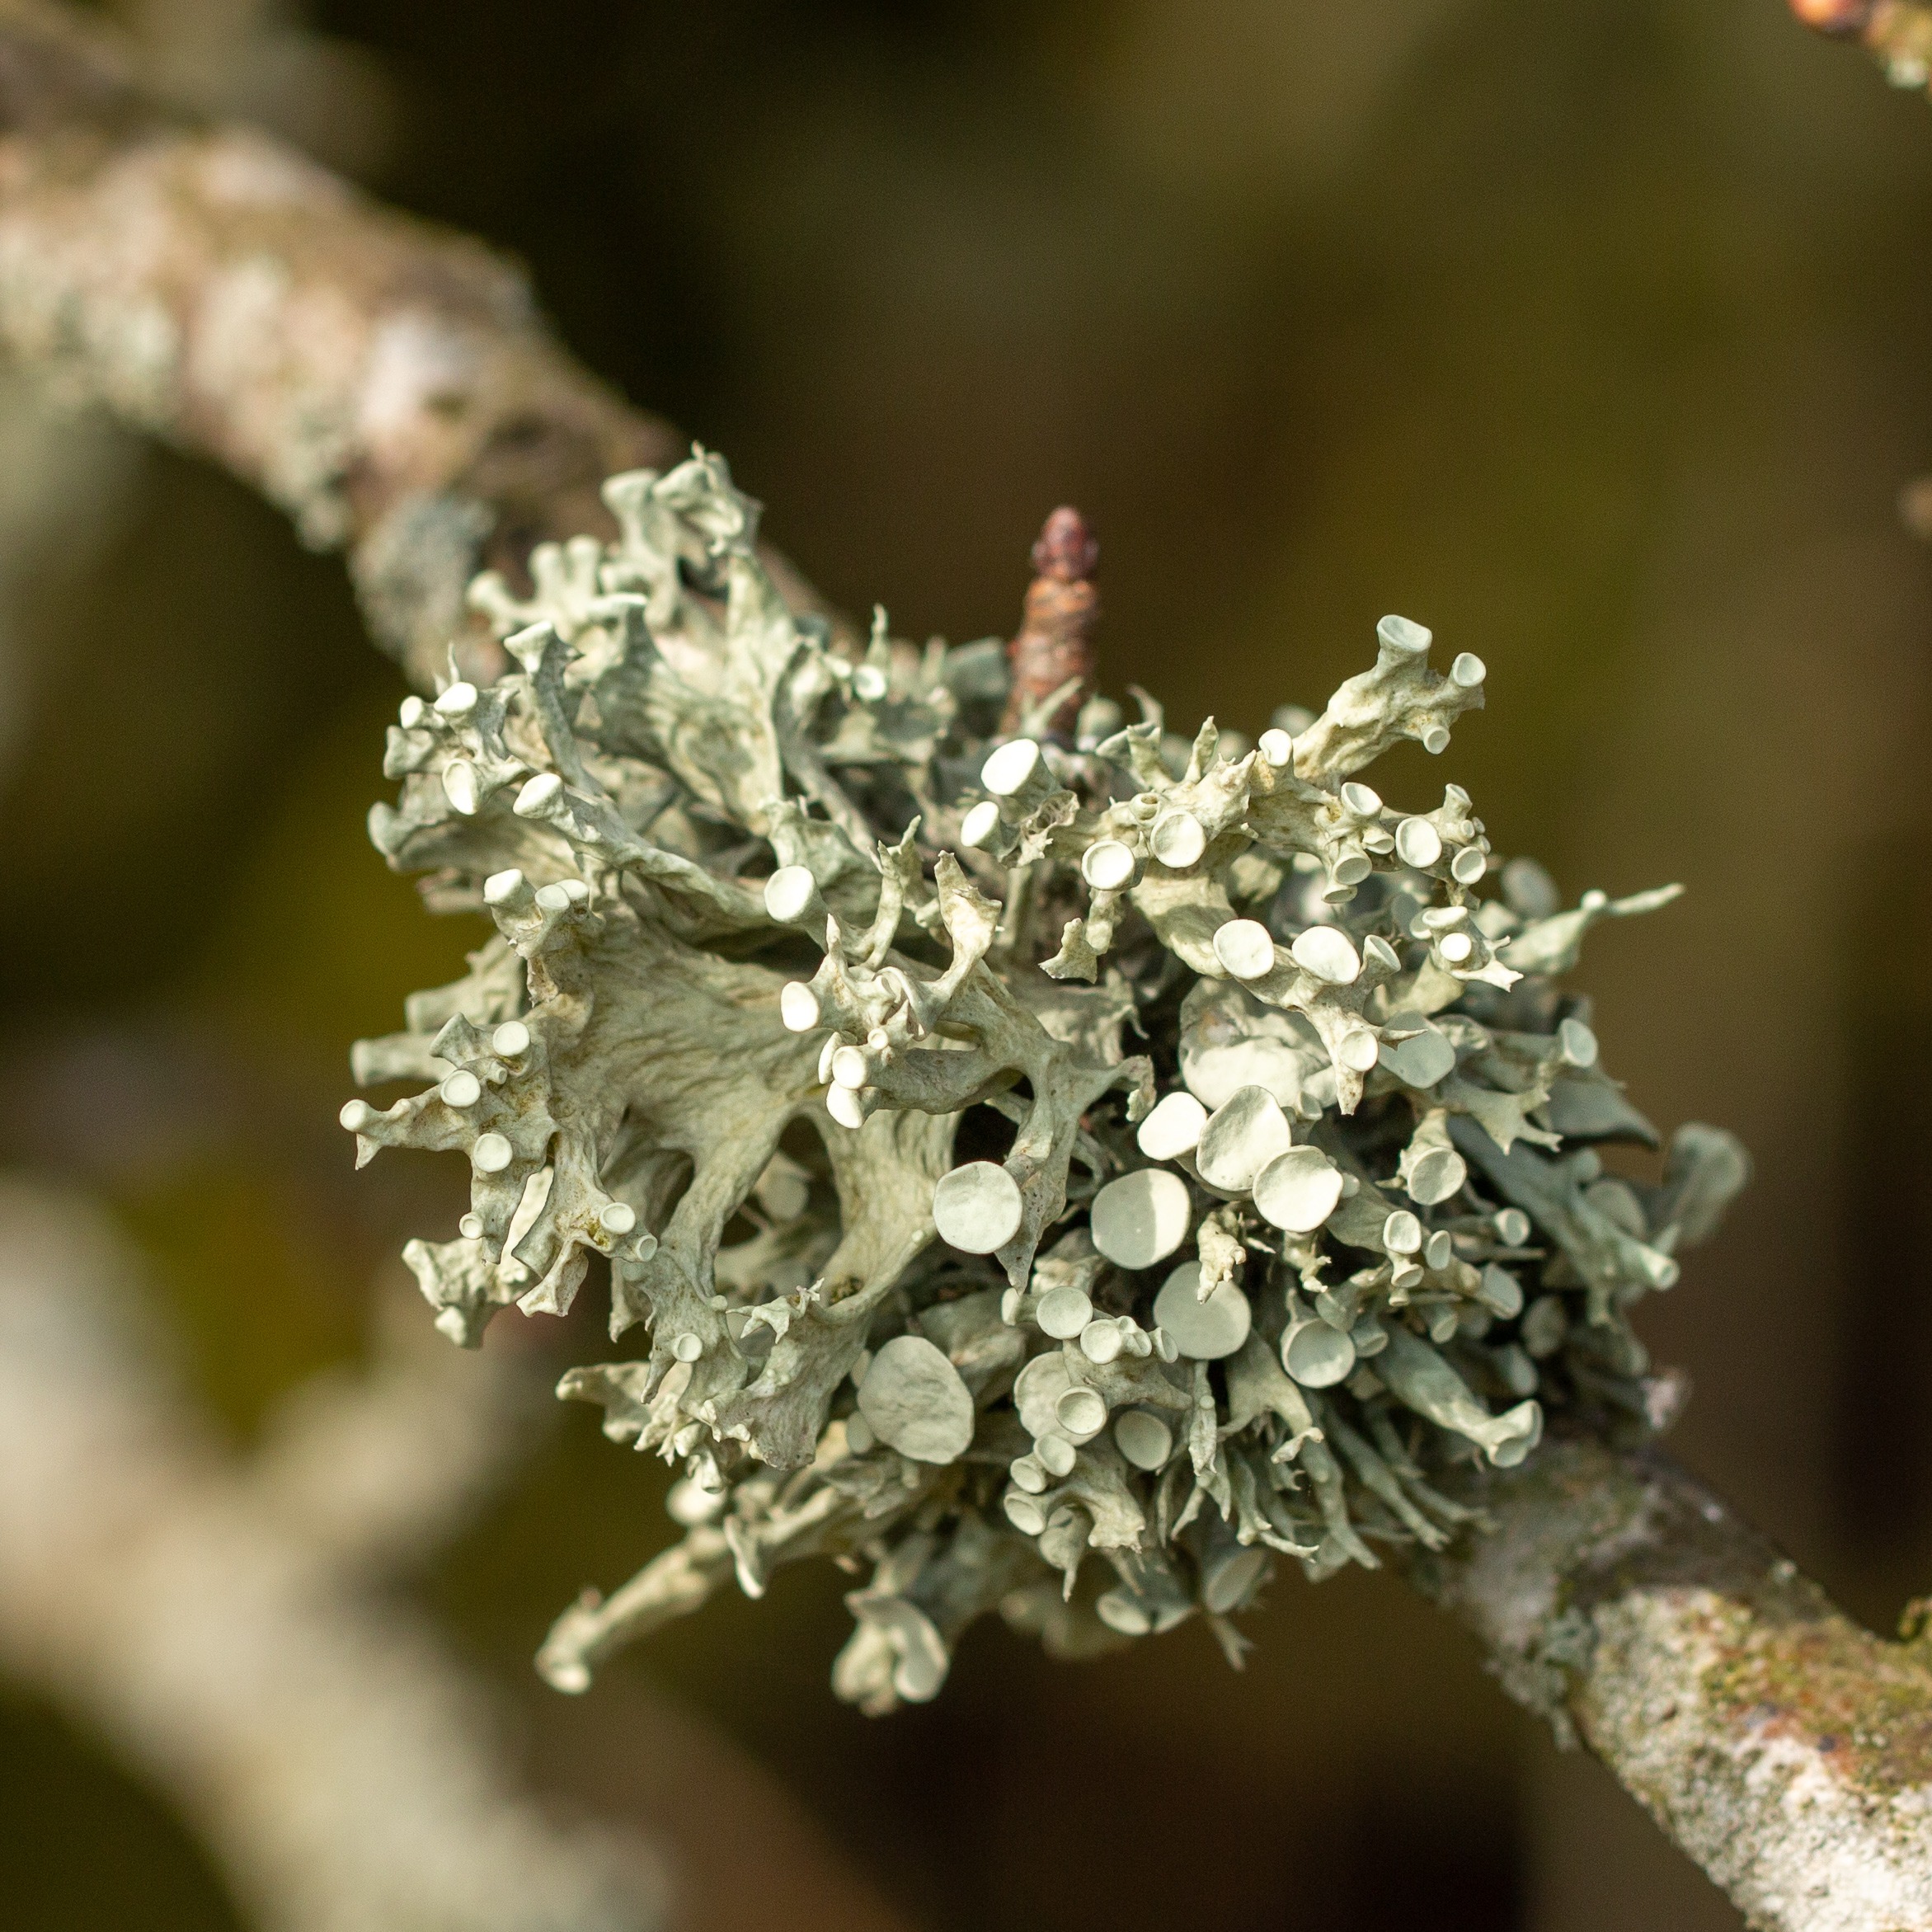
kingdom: Fungi
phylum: Ascomycota
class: Lecanoromycetes
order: Lecanorales
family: Ramalinaceae
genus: Ramalina
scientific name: Ramalina fastigiata
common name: Tue-grenlav
